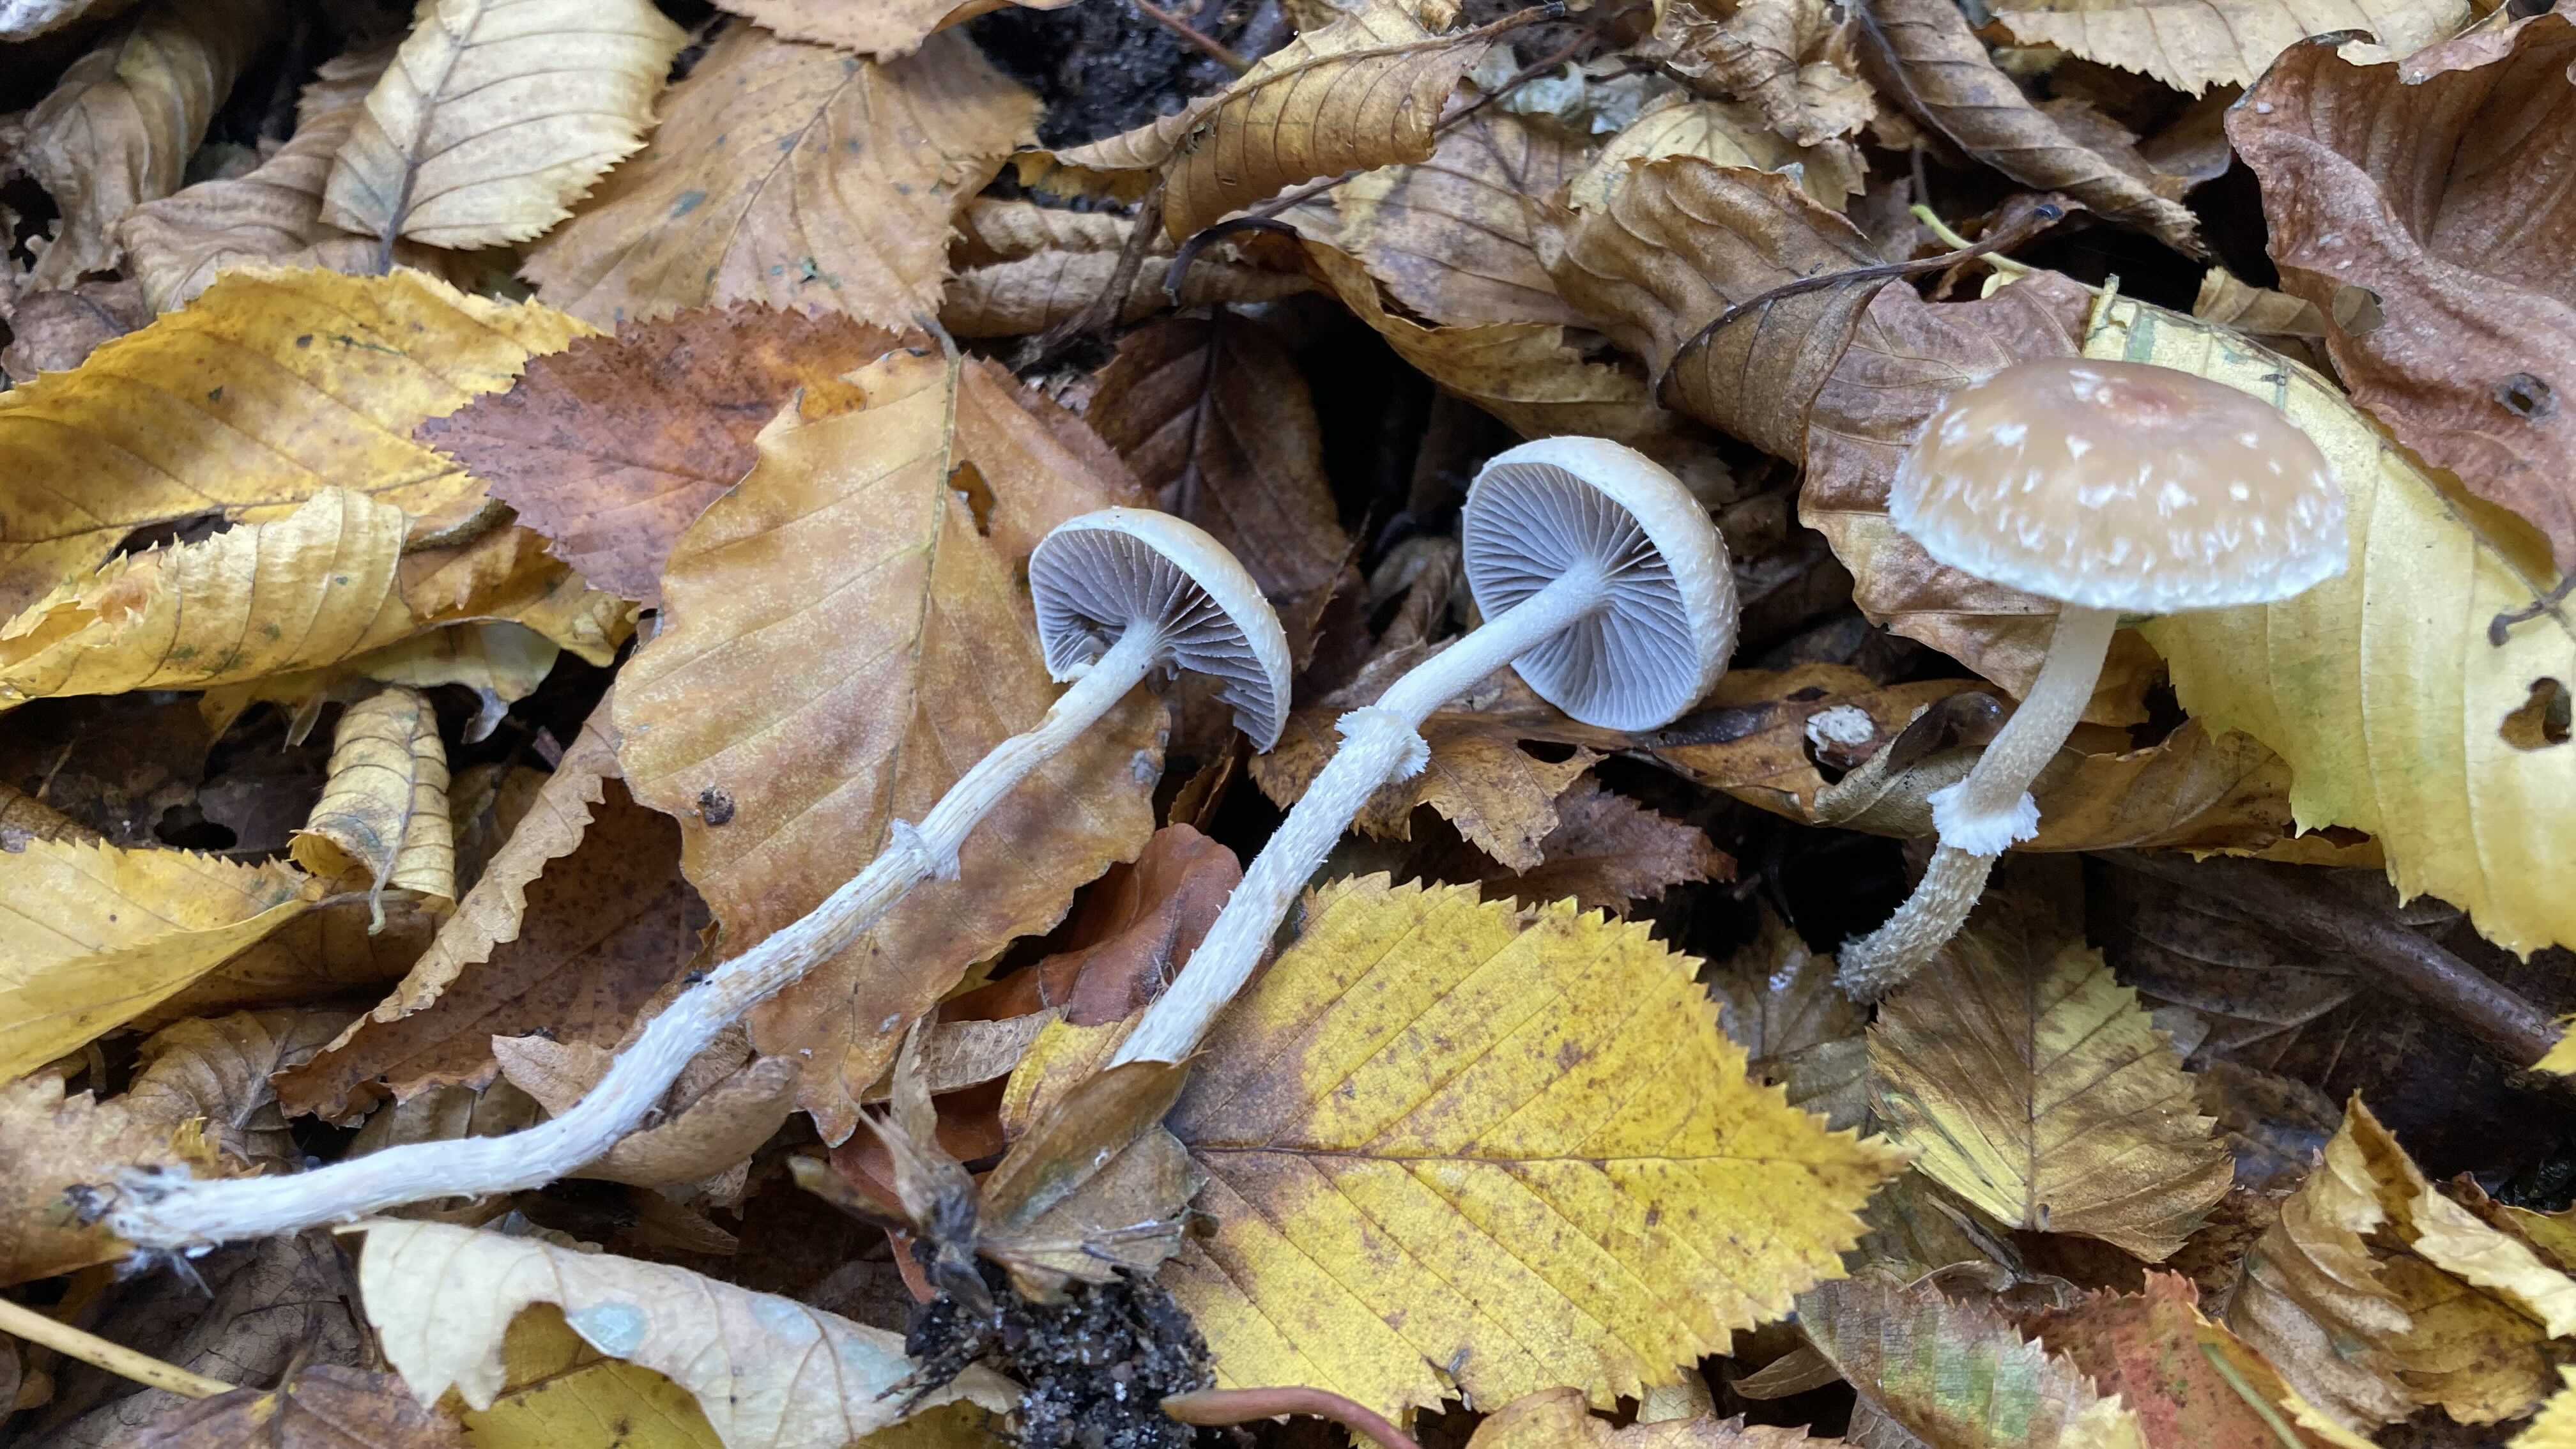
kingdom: Fungi
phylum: Basidiomycota
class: Agaricomycetes
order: Agaricales
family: Strophariaceae
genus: Leratiomyces
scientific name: Leratiomyces squamosus
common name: skællet bredblad
